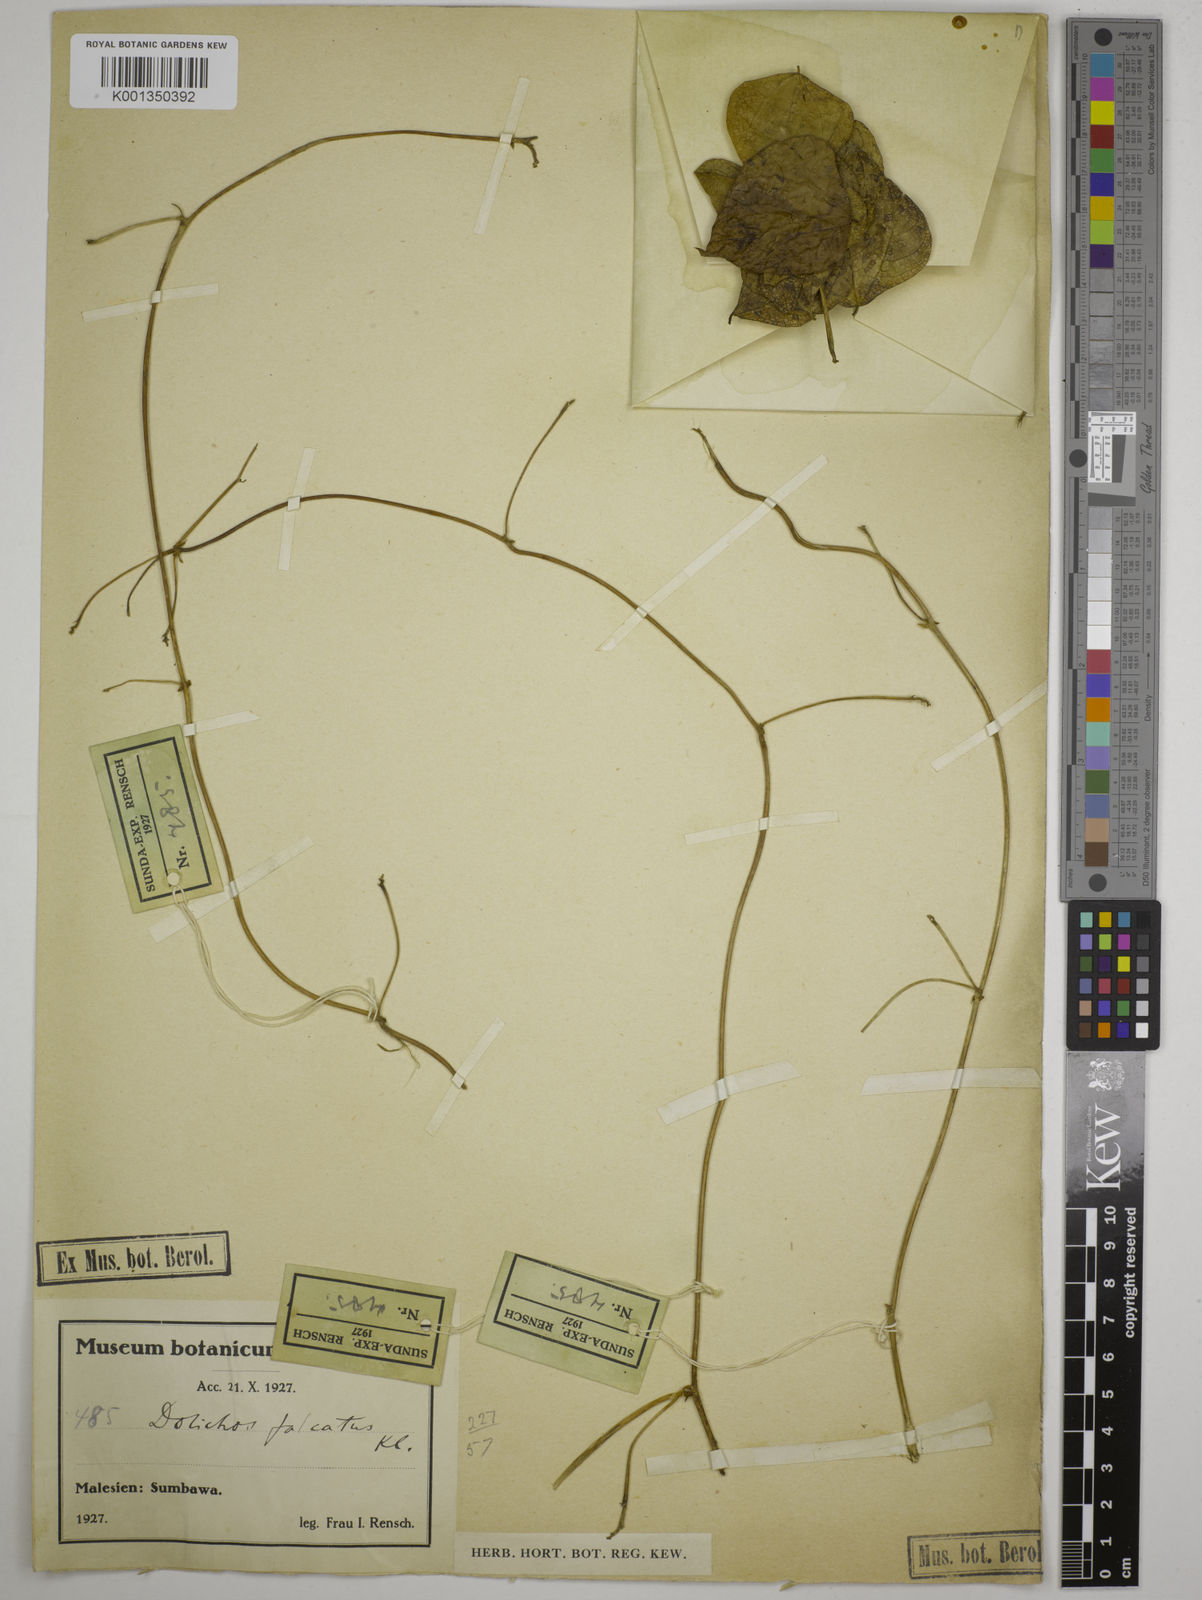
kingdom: Plantae
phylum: Tracheophyta
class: Magnoliopsida
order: Fabales
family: Fabaceae
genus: Dolichos
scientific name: Dolichos
